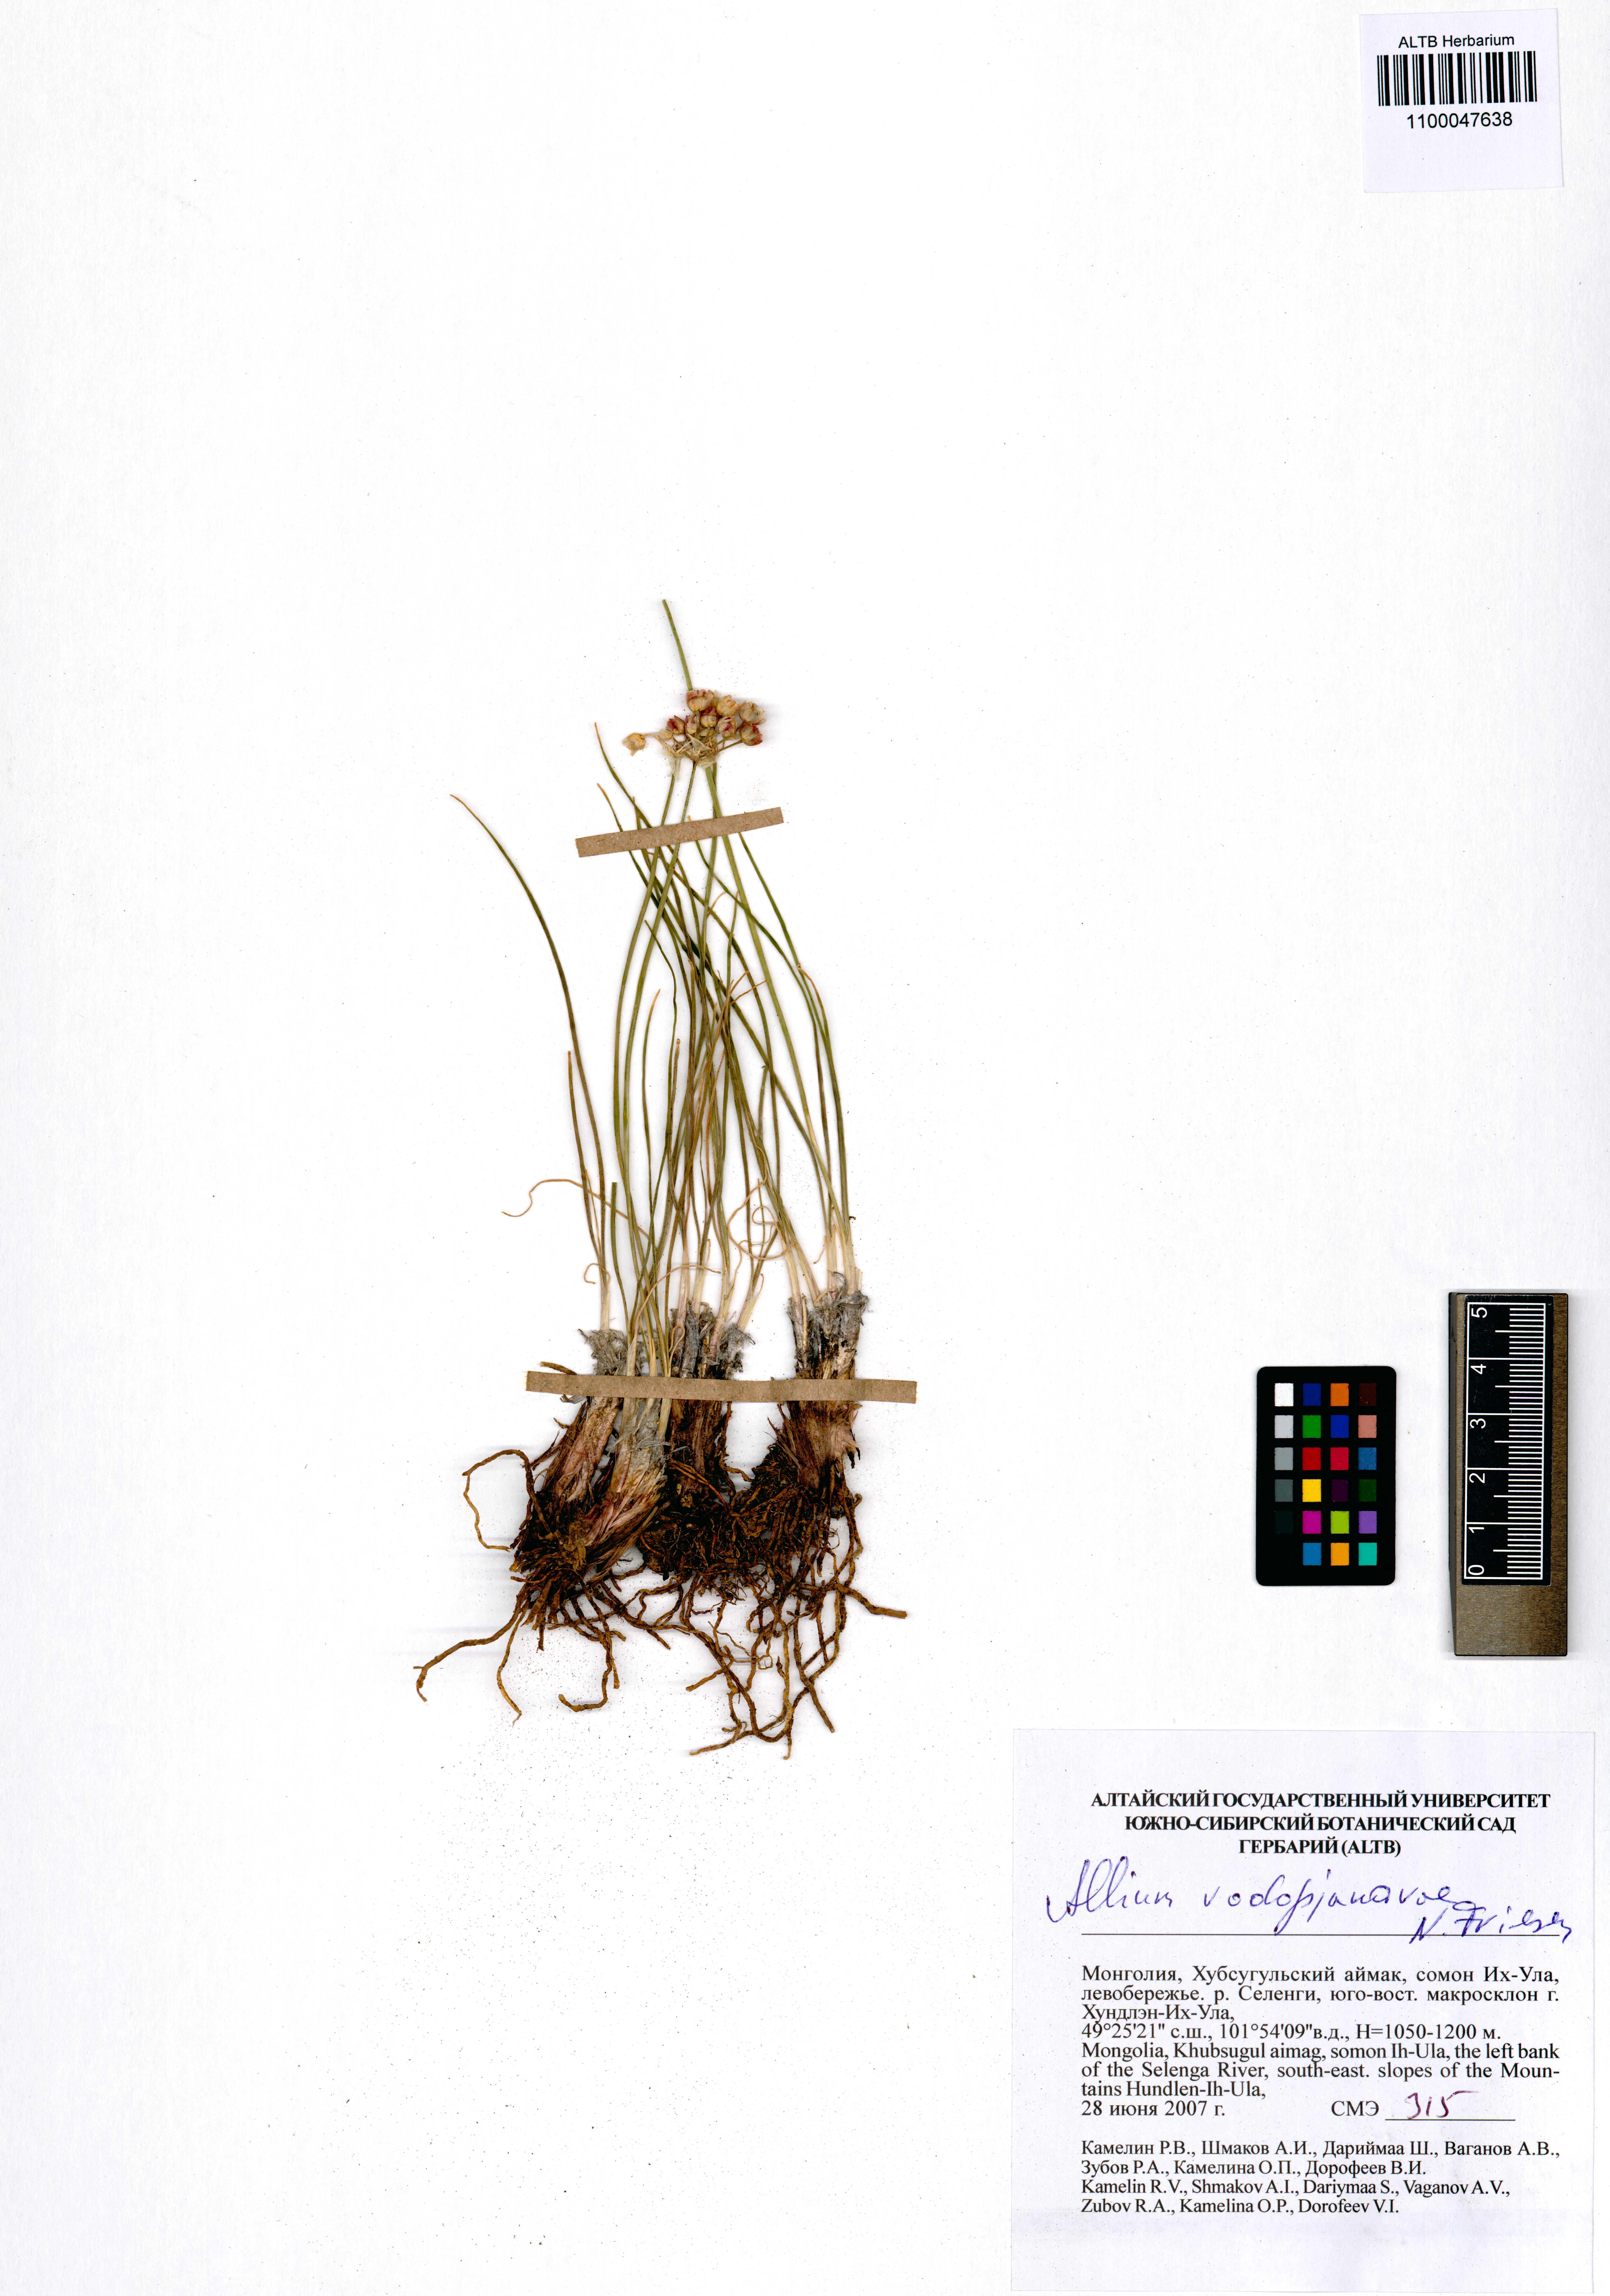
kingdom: Plantae
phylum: Tracheophyta
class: Liliopsida
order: Asparagales
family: Amaryllidaceae
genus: Allium
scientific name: Allium vodopjanovae
